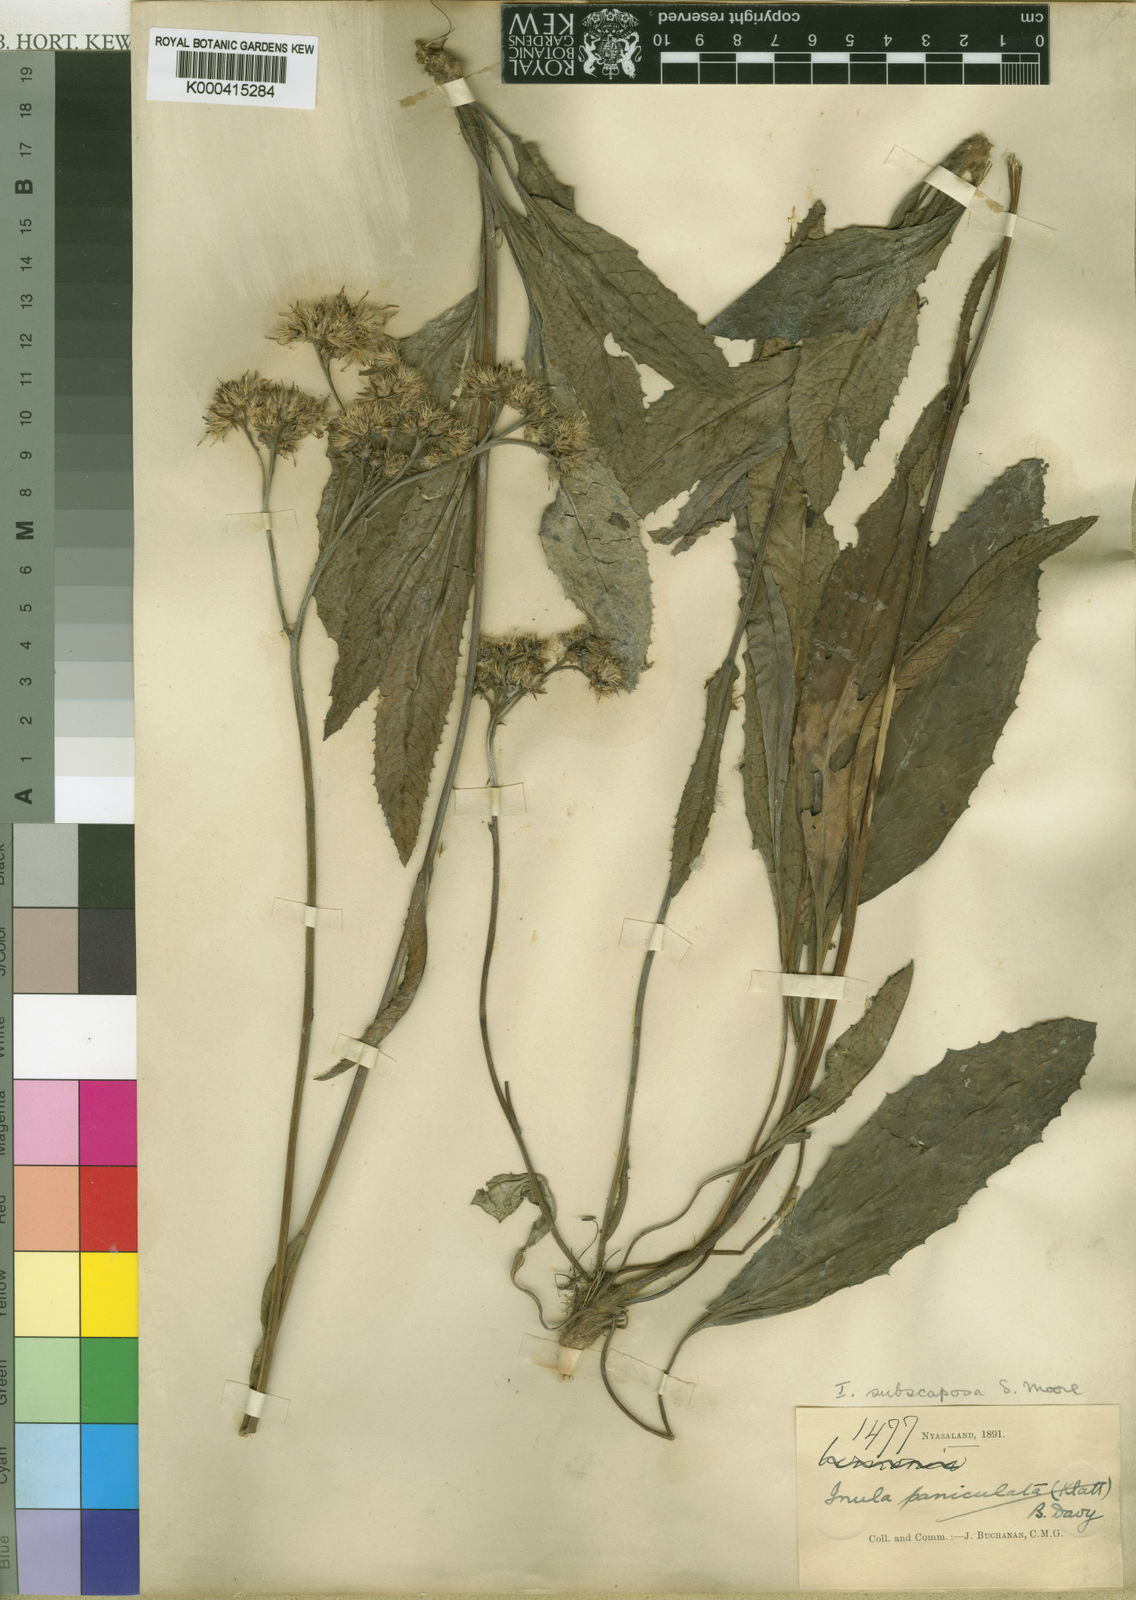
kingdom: Plantae
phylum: Tracheophyta
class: Magnoliopsida
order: Asterales
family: Asteraceae
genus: Monactinocephalus
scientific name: Monactinocephalus paniculatus
